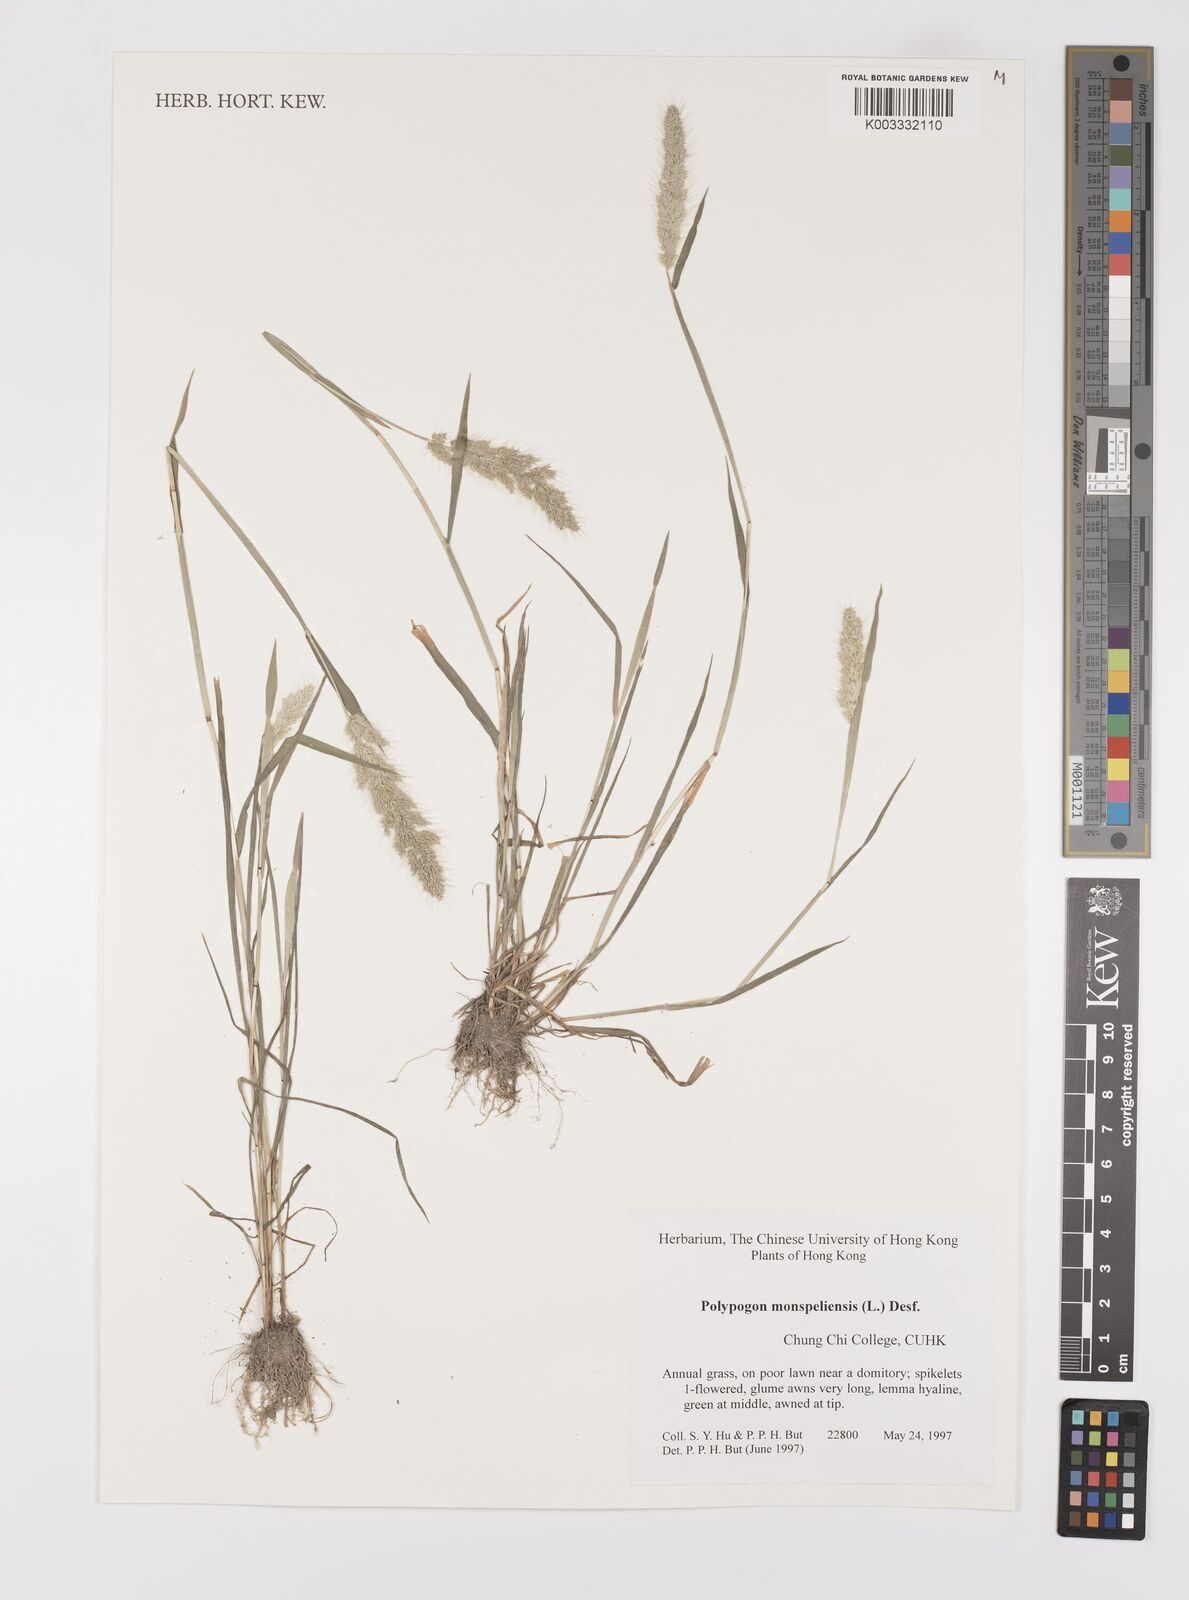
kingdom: Plantae
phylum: Tracheophyta
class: Liliopsida
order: Poales
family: Poaceae
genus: Polypogon
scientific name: Polypogon monspeliensis
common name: Annual rabbitsfoot grass
